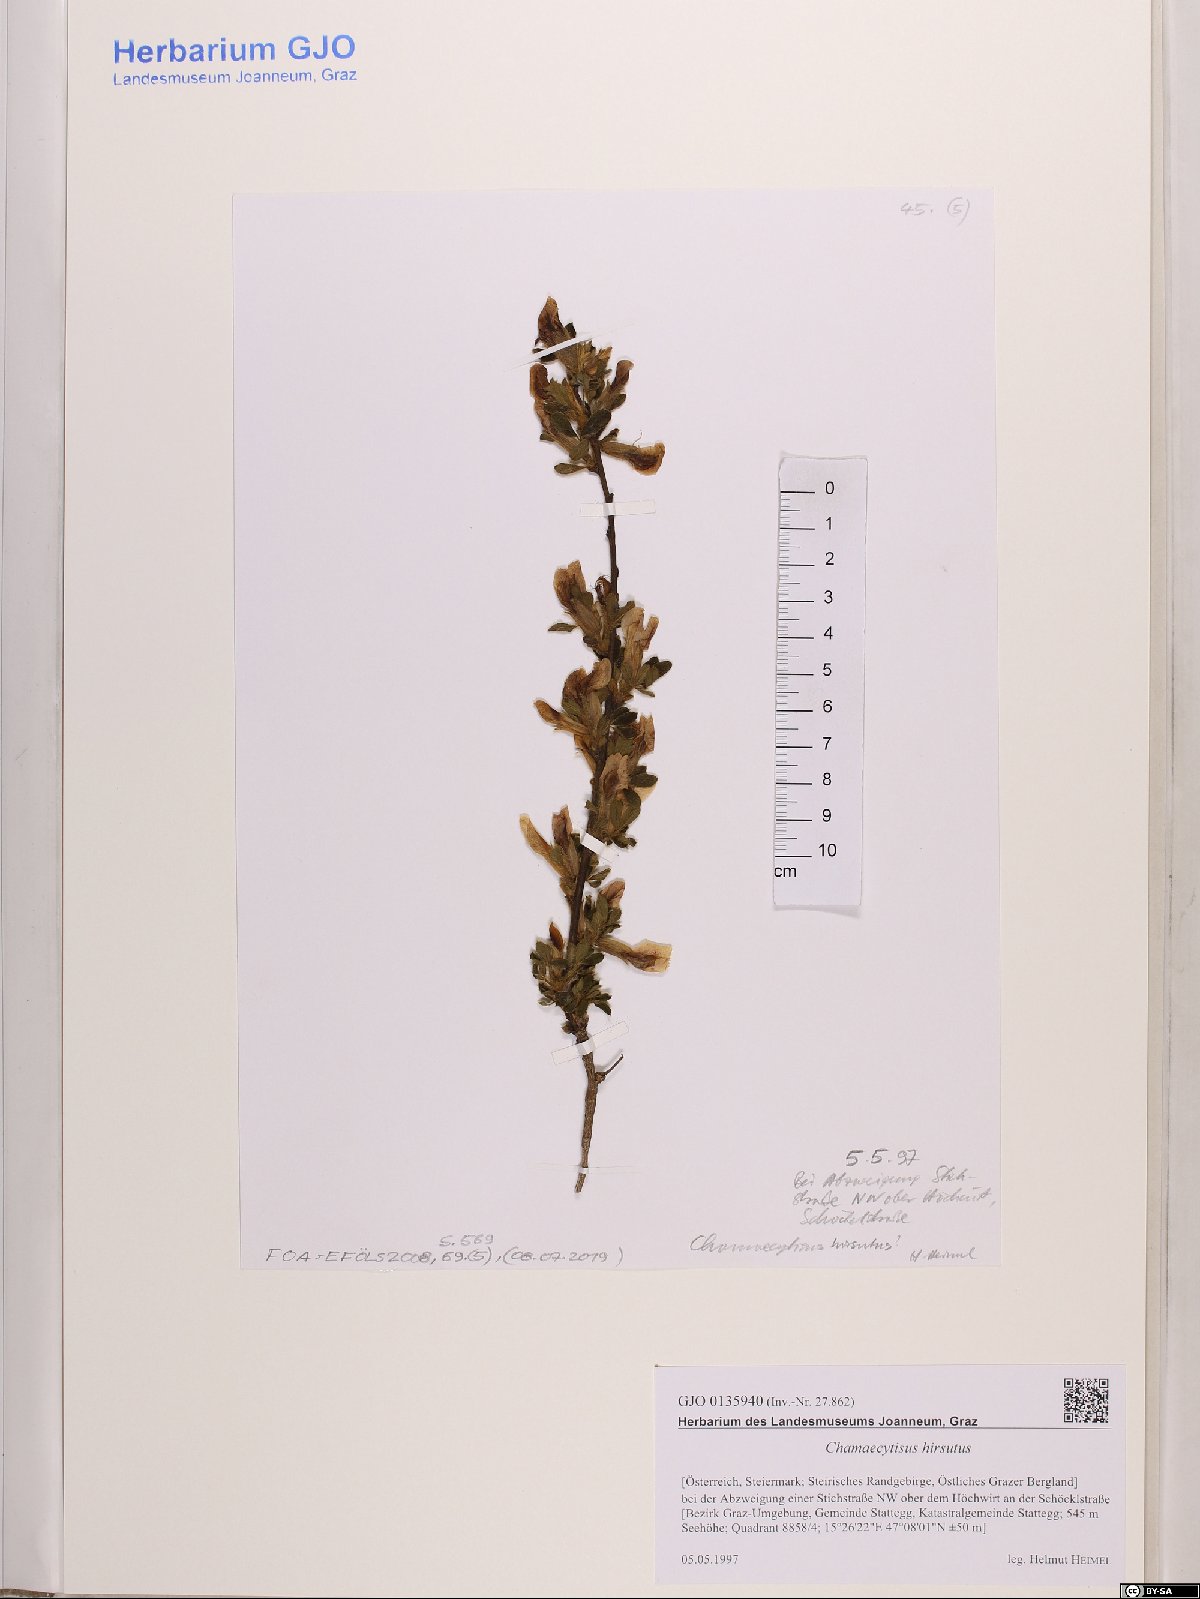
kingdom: Plantae
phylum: Tracheophyta
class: Magnoliopsida
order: Fabales
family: Fabaceae
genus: Chamaecytisus
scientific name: Chamaecytisus hirsutus
